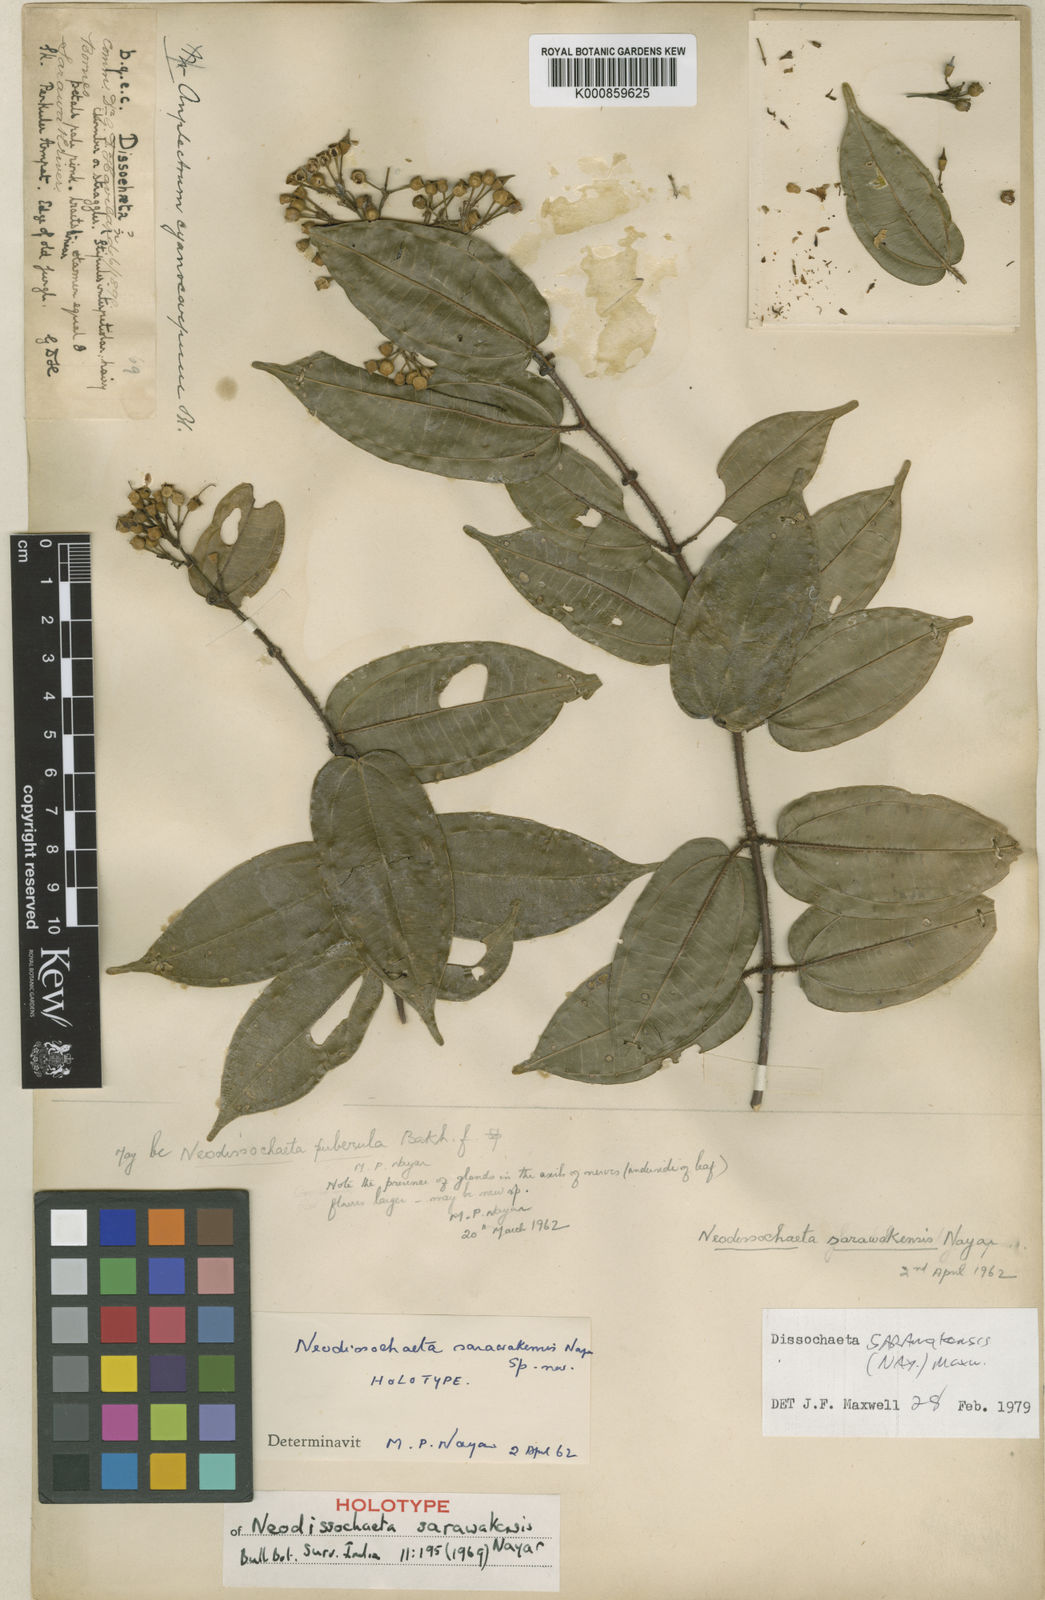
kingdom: Plantae
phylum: Tracheophyta
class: Magnoliopsida
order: Myrtales
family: Melastomataceae
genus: Dalenia
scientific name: Dalenia sarawakensis
